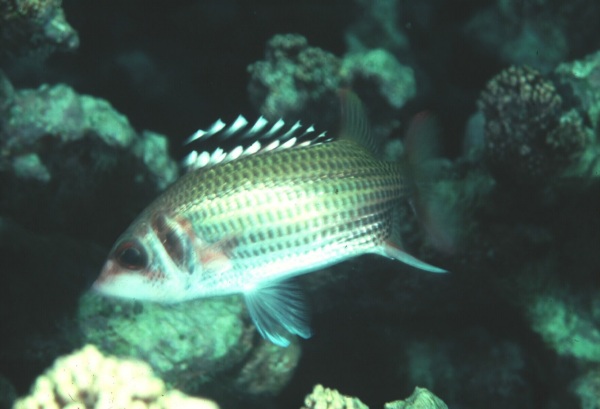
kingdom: Animalia
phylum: Chordata
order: Beryciformes
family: Holocentridae
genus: Neoniphon
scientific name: Neoniphon opercularis
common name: Blackfin squirrelfish
